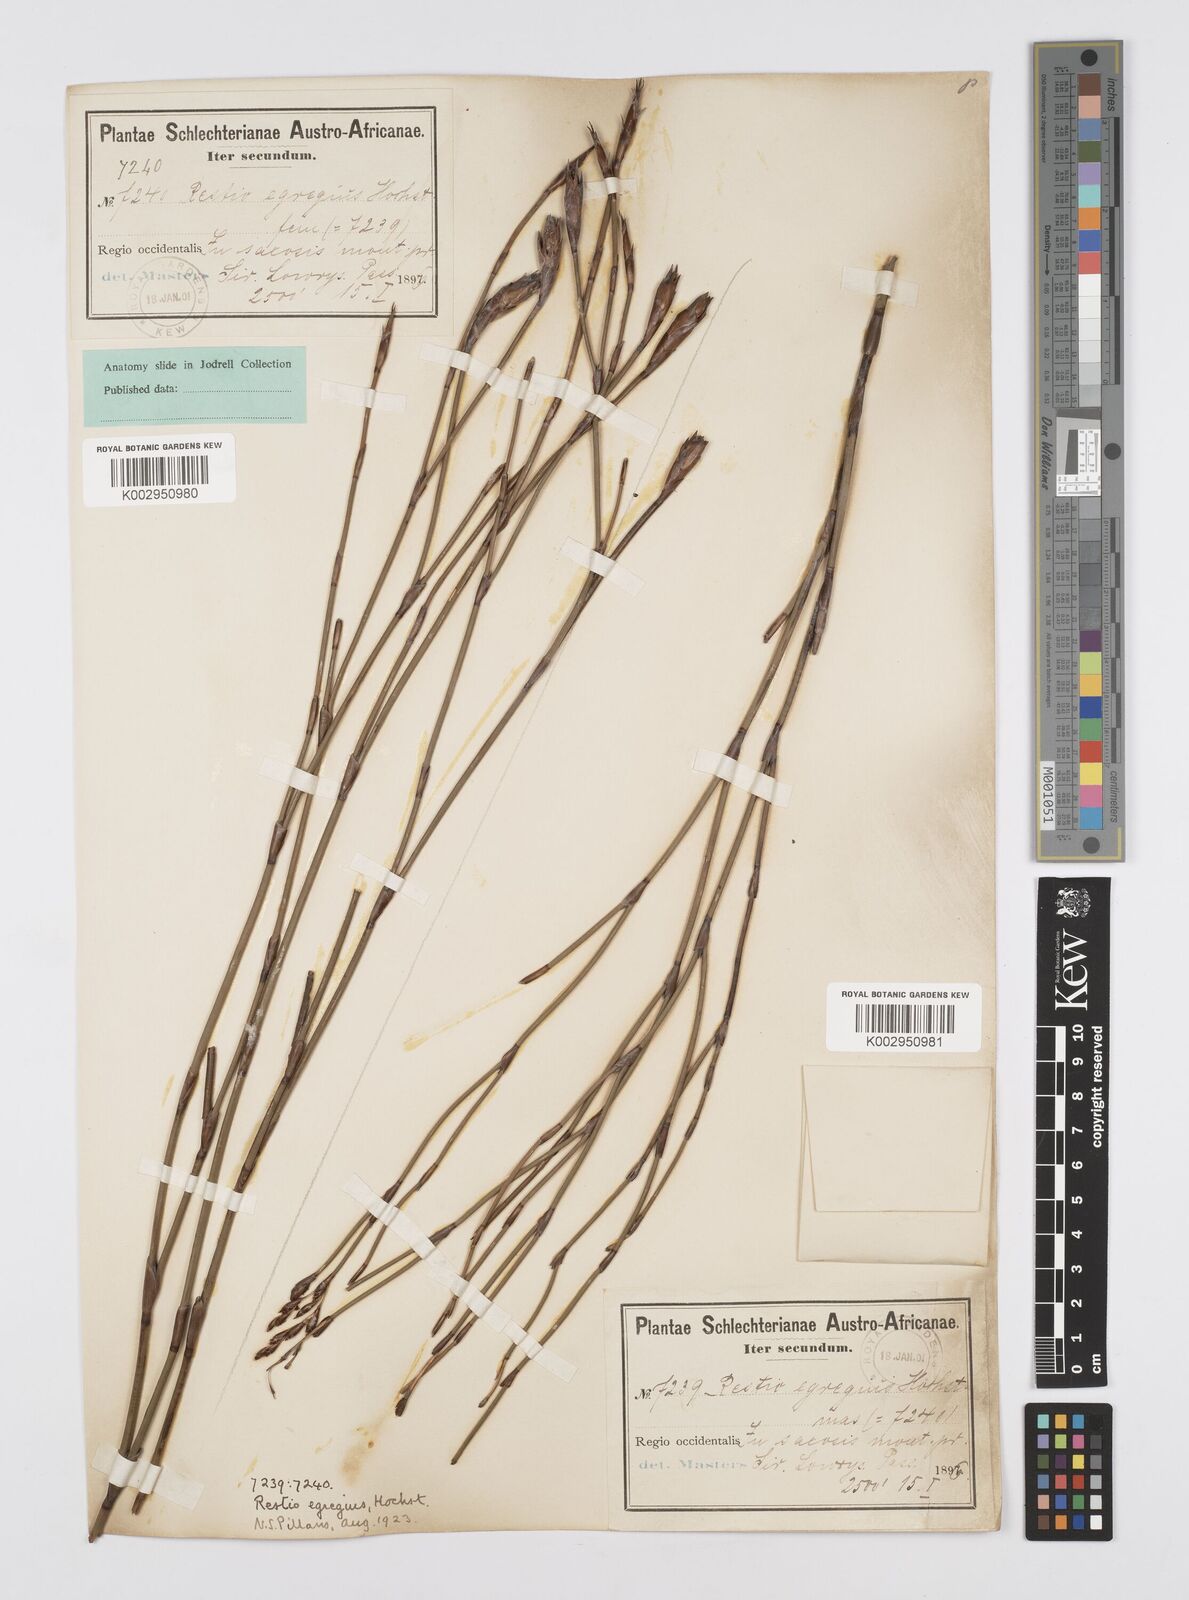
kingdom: Plantae
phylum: Tracheophyta
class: Liliopsida
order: Poales
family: Restionaceae
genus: Restio
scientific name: Restio egregius
